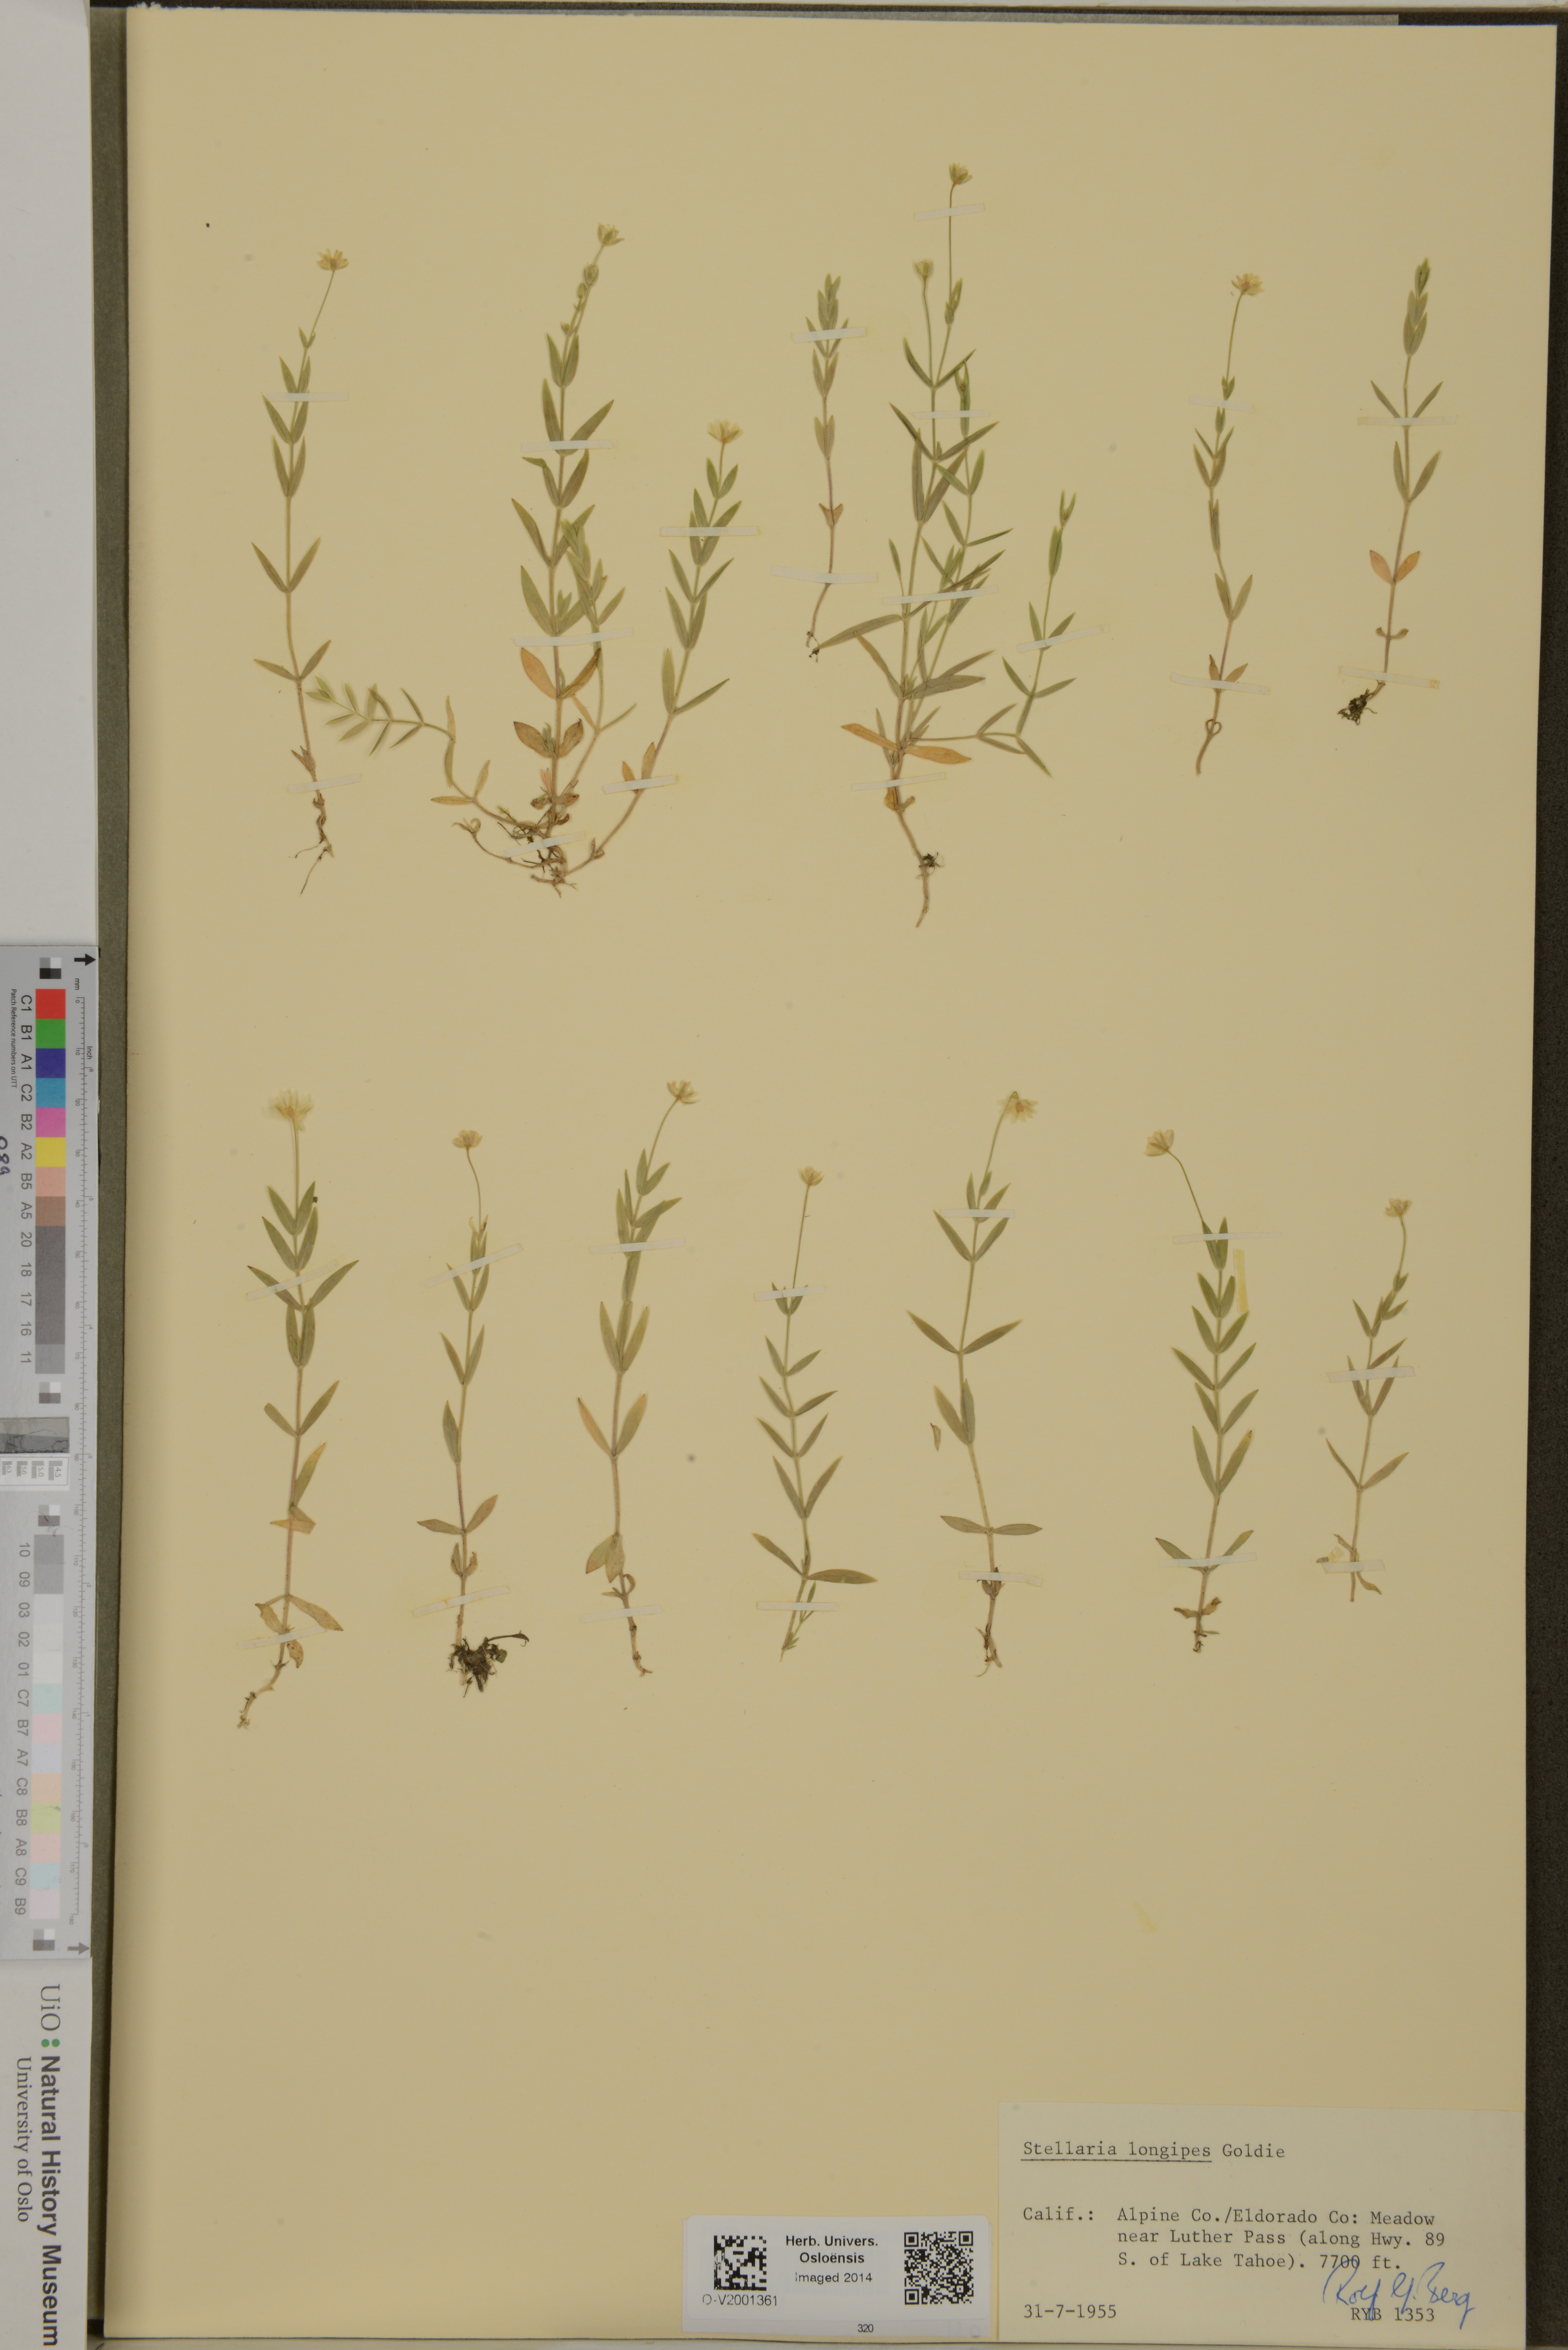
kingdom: Plantae
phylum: Tracheophyta
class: Magnoliopsida
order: Caryophyllales
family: Caryophyllaceae
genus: Stellaria
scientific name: Stellaria longipes
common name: Goldie's starwort
